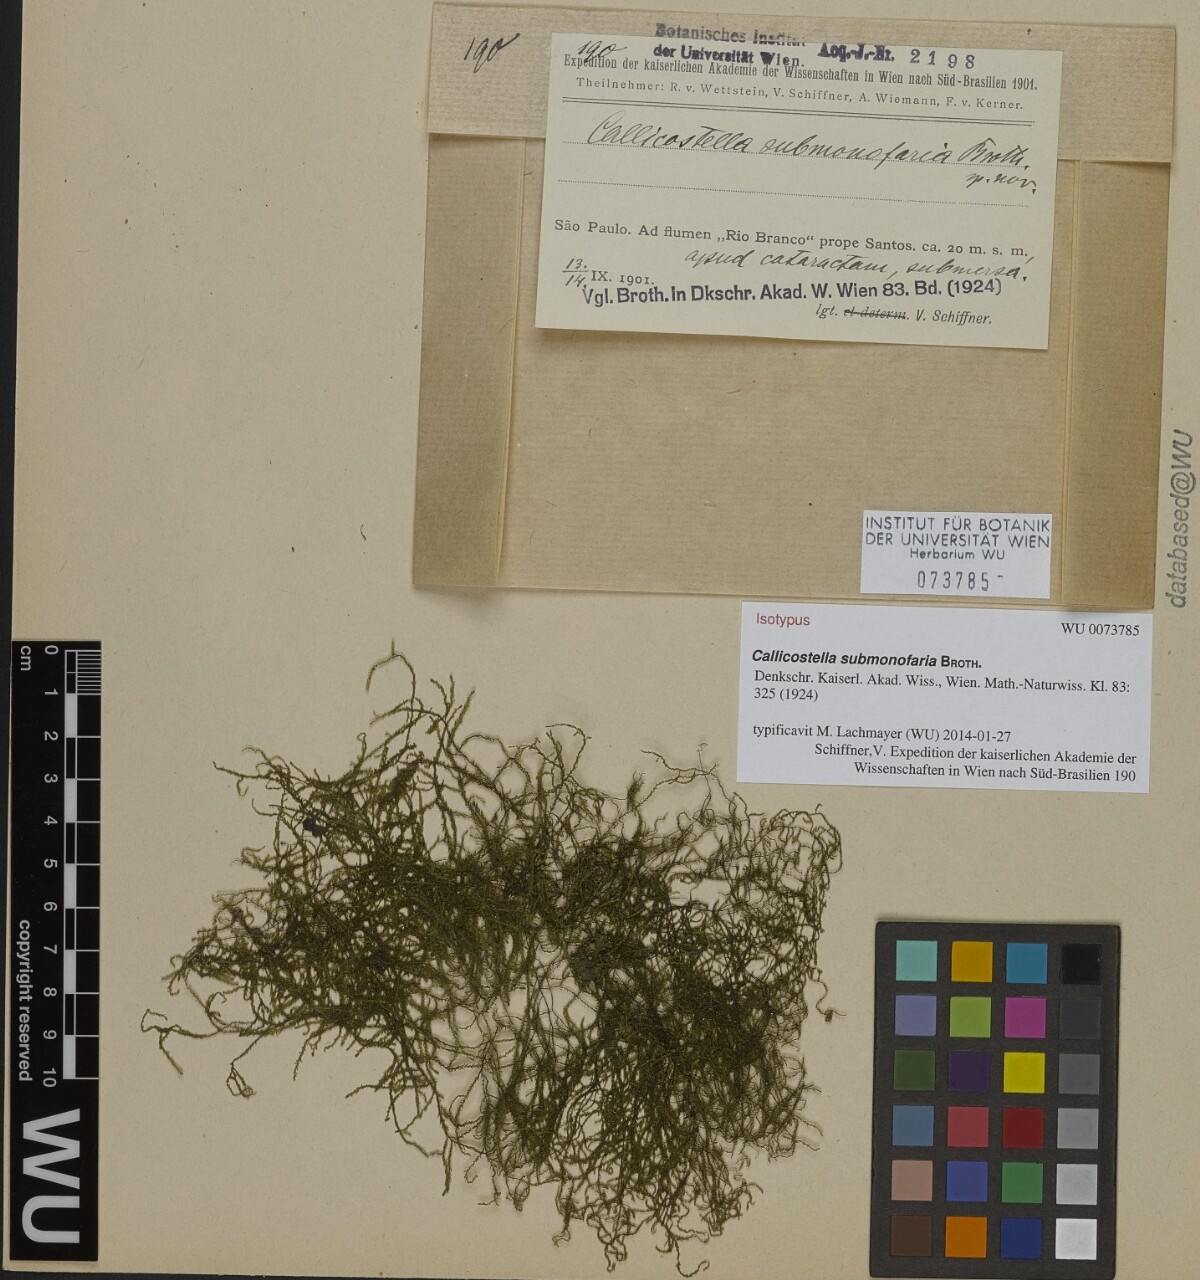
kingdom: Plantae
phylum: Bryophyta
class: Bryopsida
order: Hookeriales
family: Pilotrichaceae
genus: Callicostella
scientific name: Callicostella submonofaria
